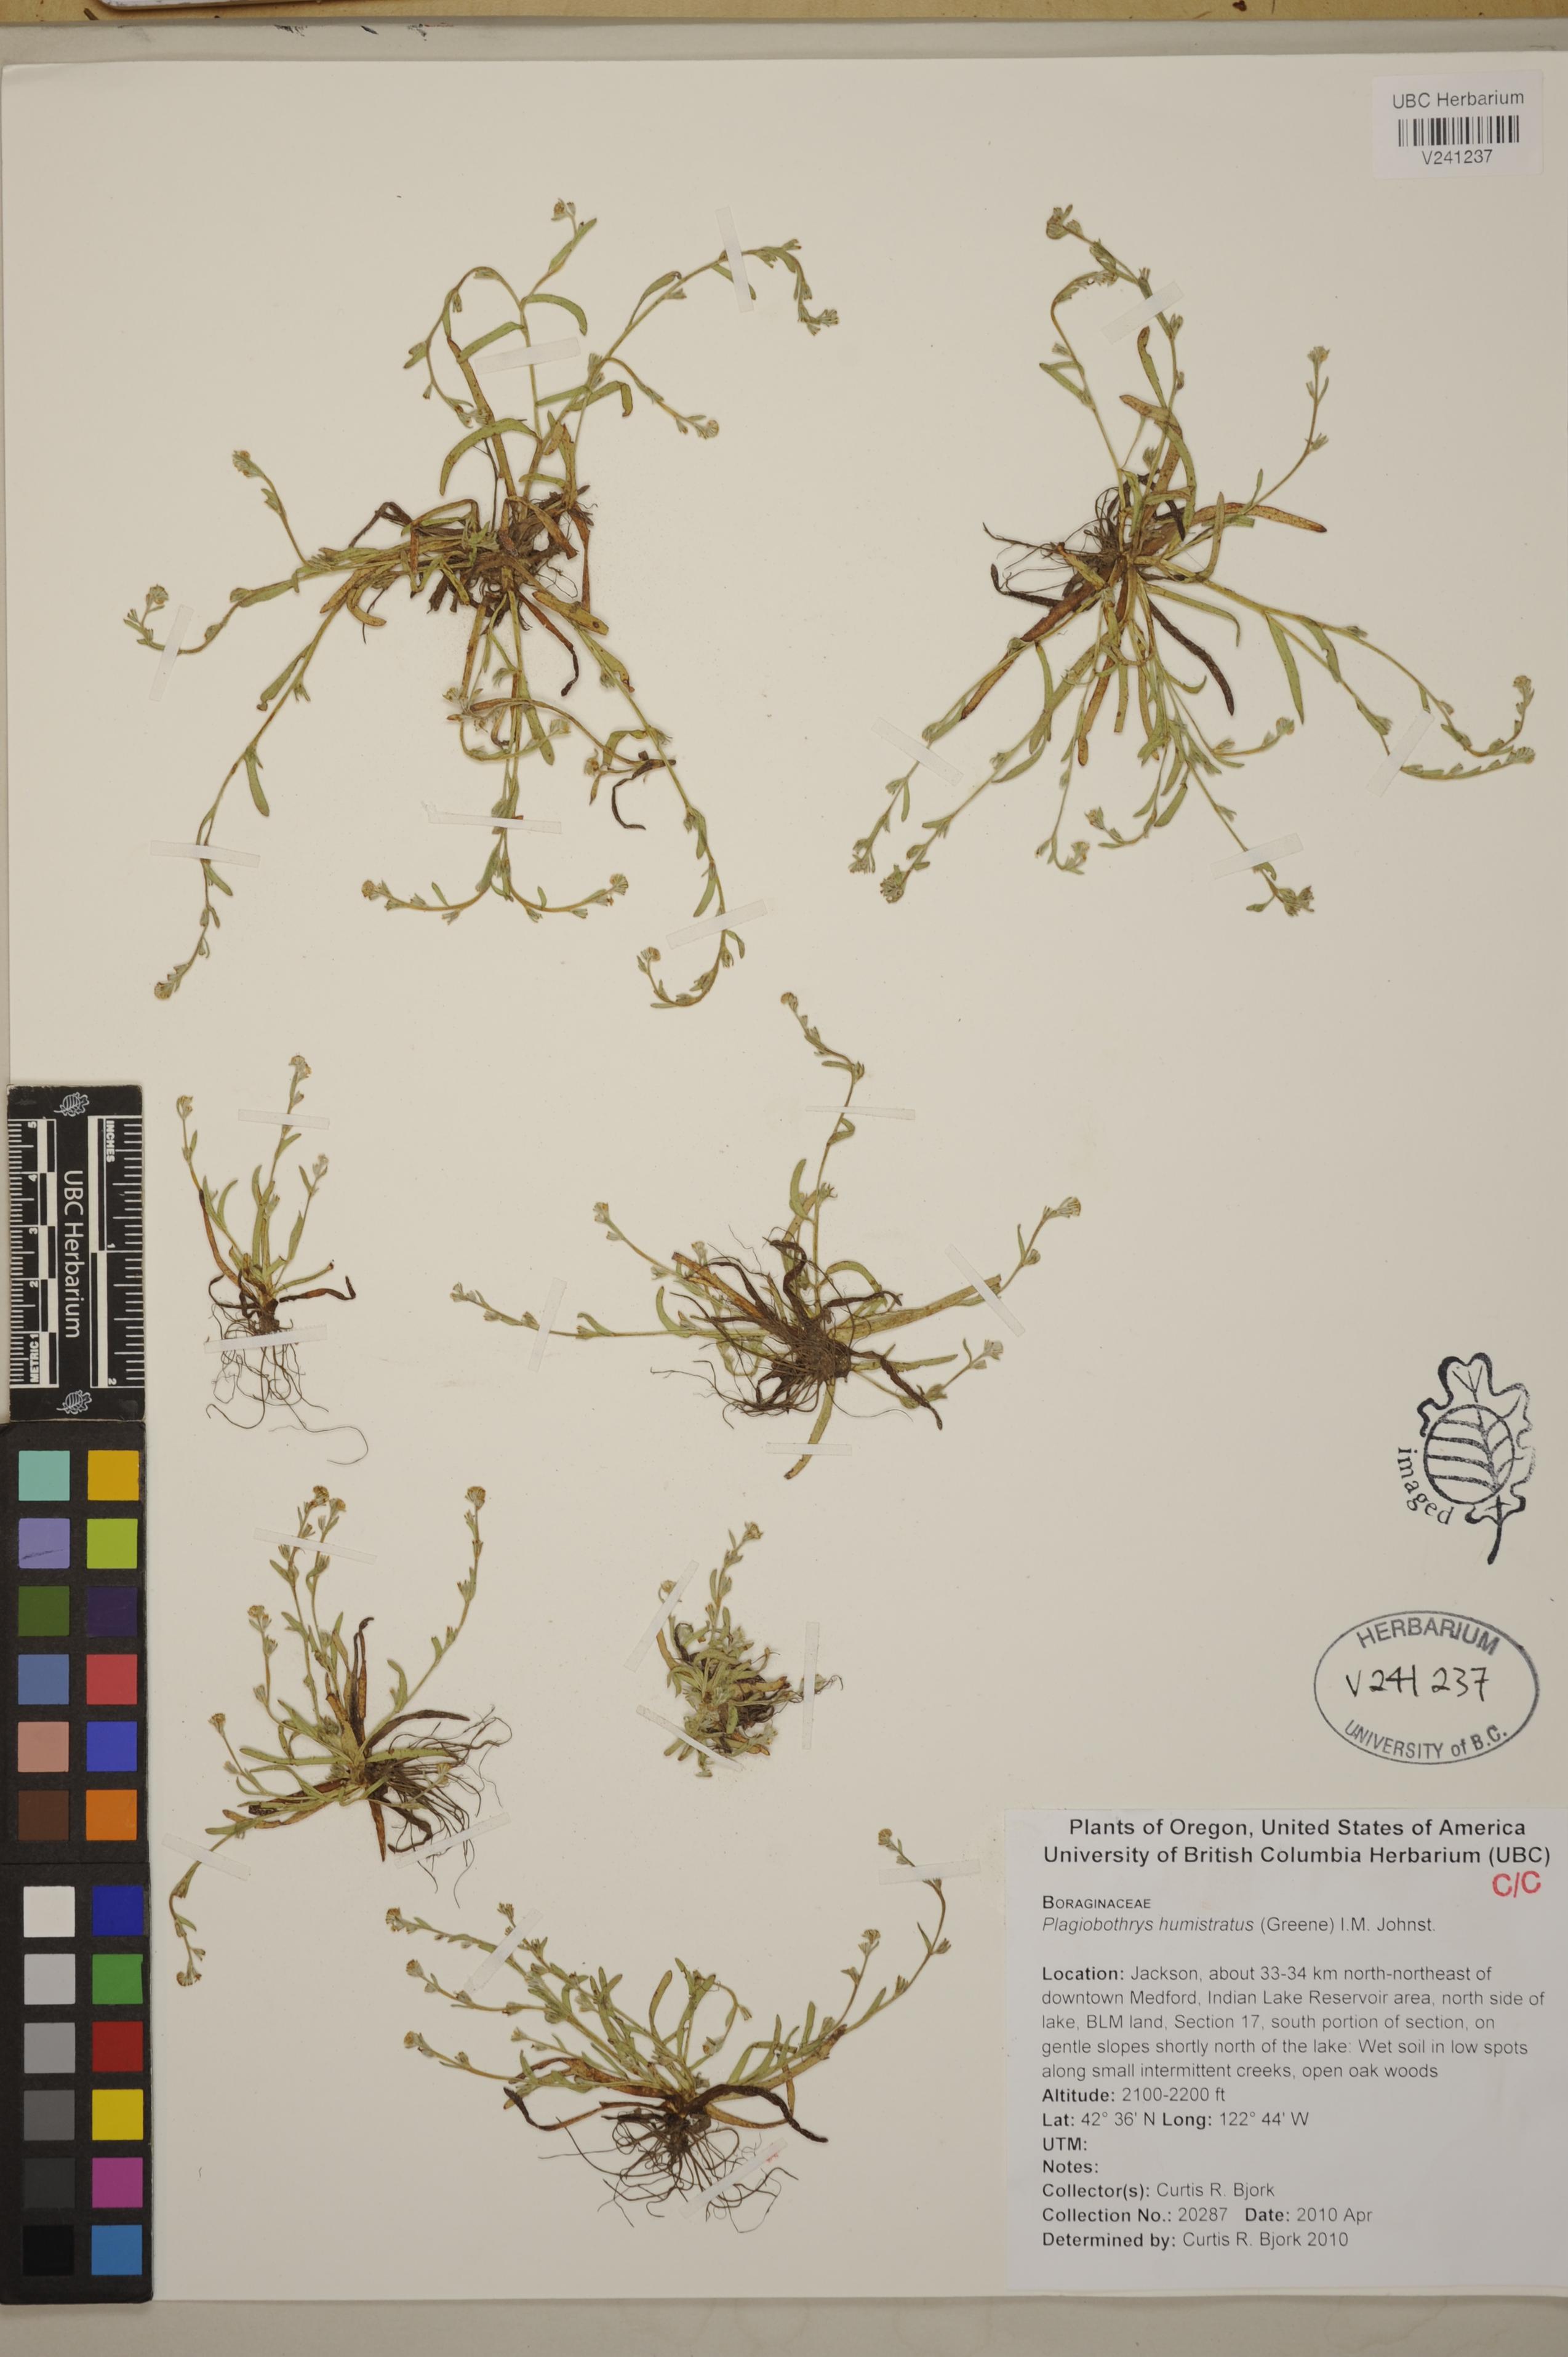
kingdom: Plantae
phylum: Tracheophyta
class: Magnoliopsida
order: Boraginales
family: Boraginaceae
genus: Plagiobothrys
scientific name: Plagiobothrys humistratus
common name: Dwarf popcornflower
